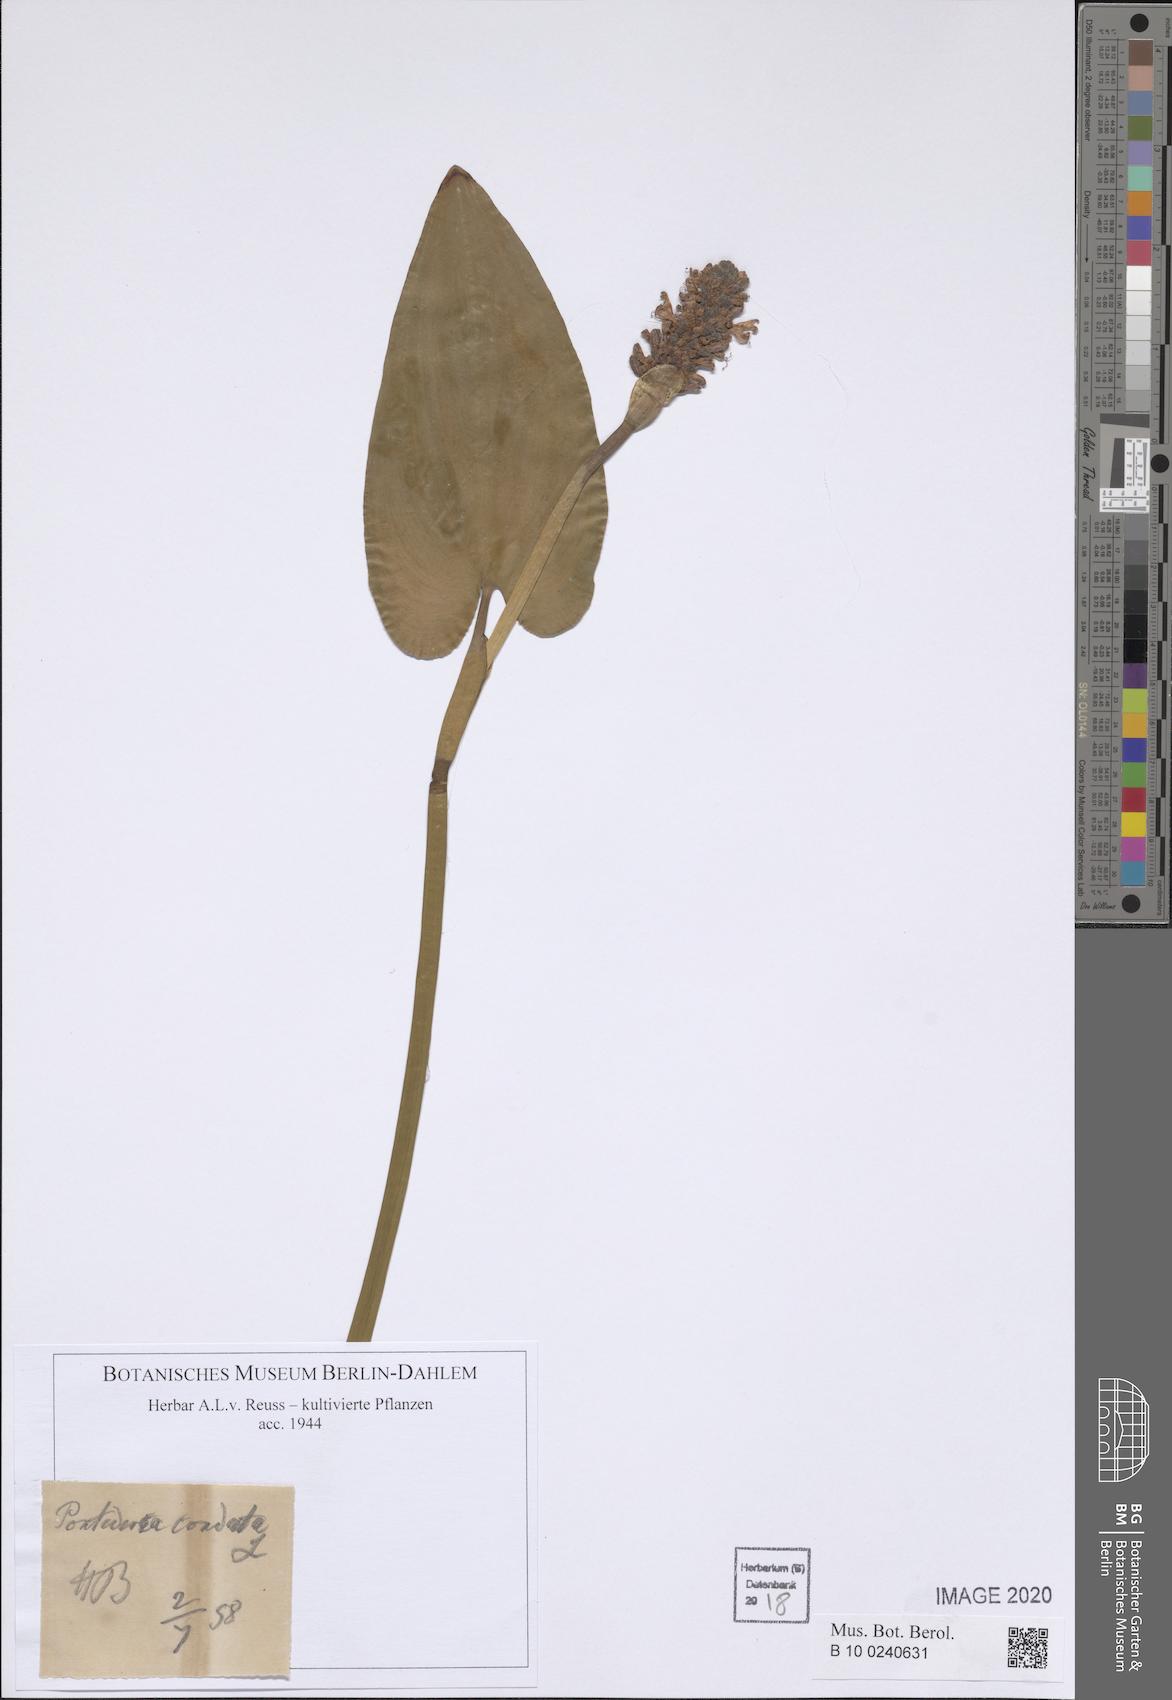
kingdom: Plantae
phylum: Tracheophyta
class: Liliopsida
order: Commelinales
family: Pontederiaceae
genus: Pontederia
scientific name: Pontederia cordata
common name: Pickerelweed
